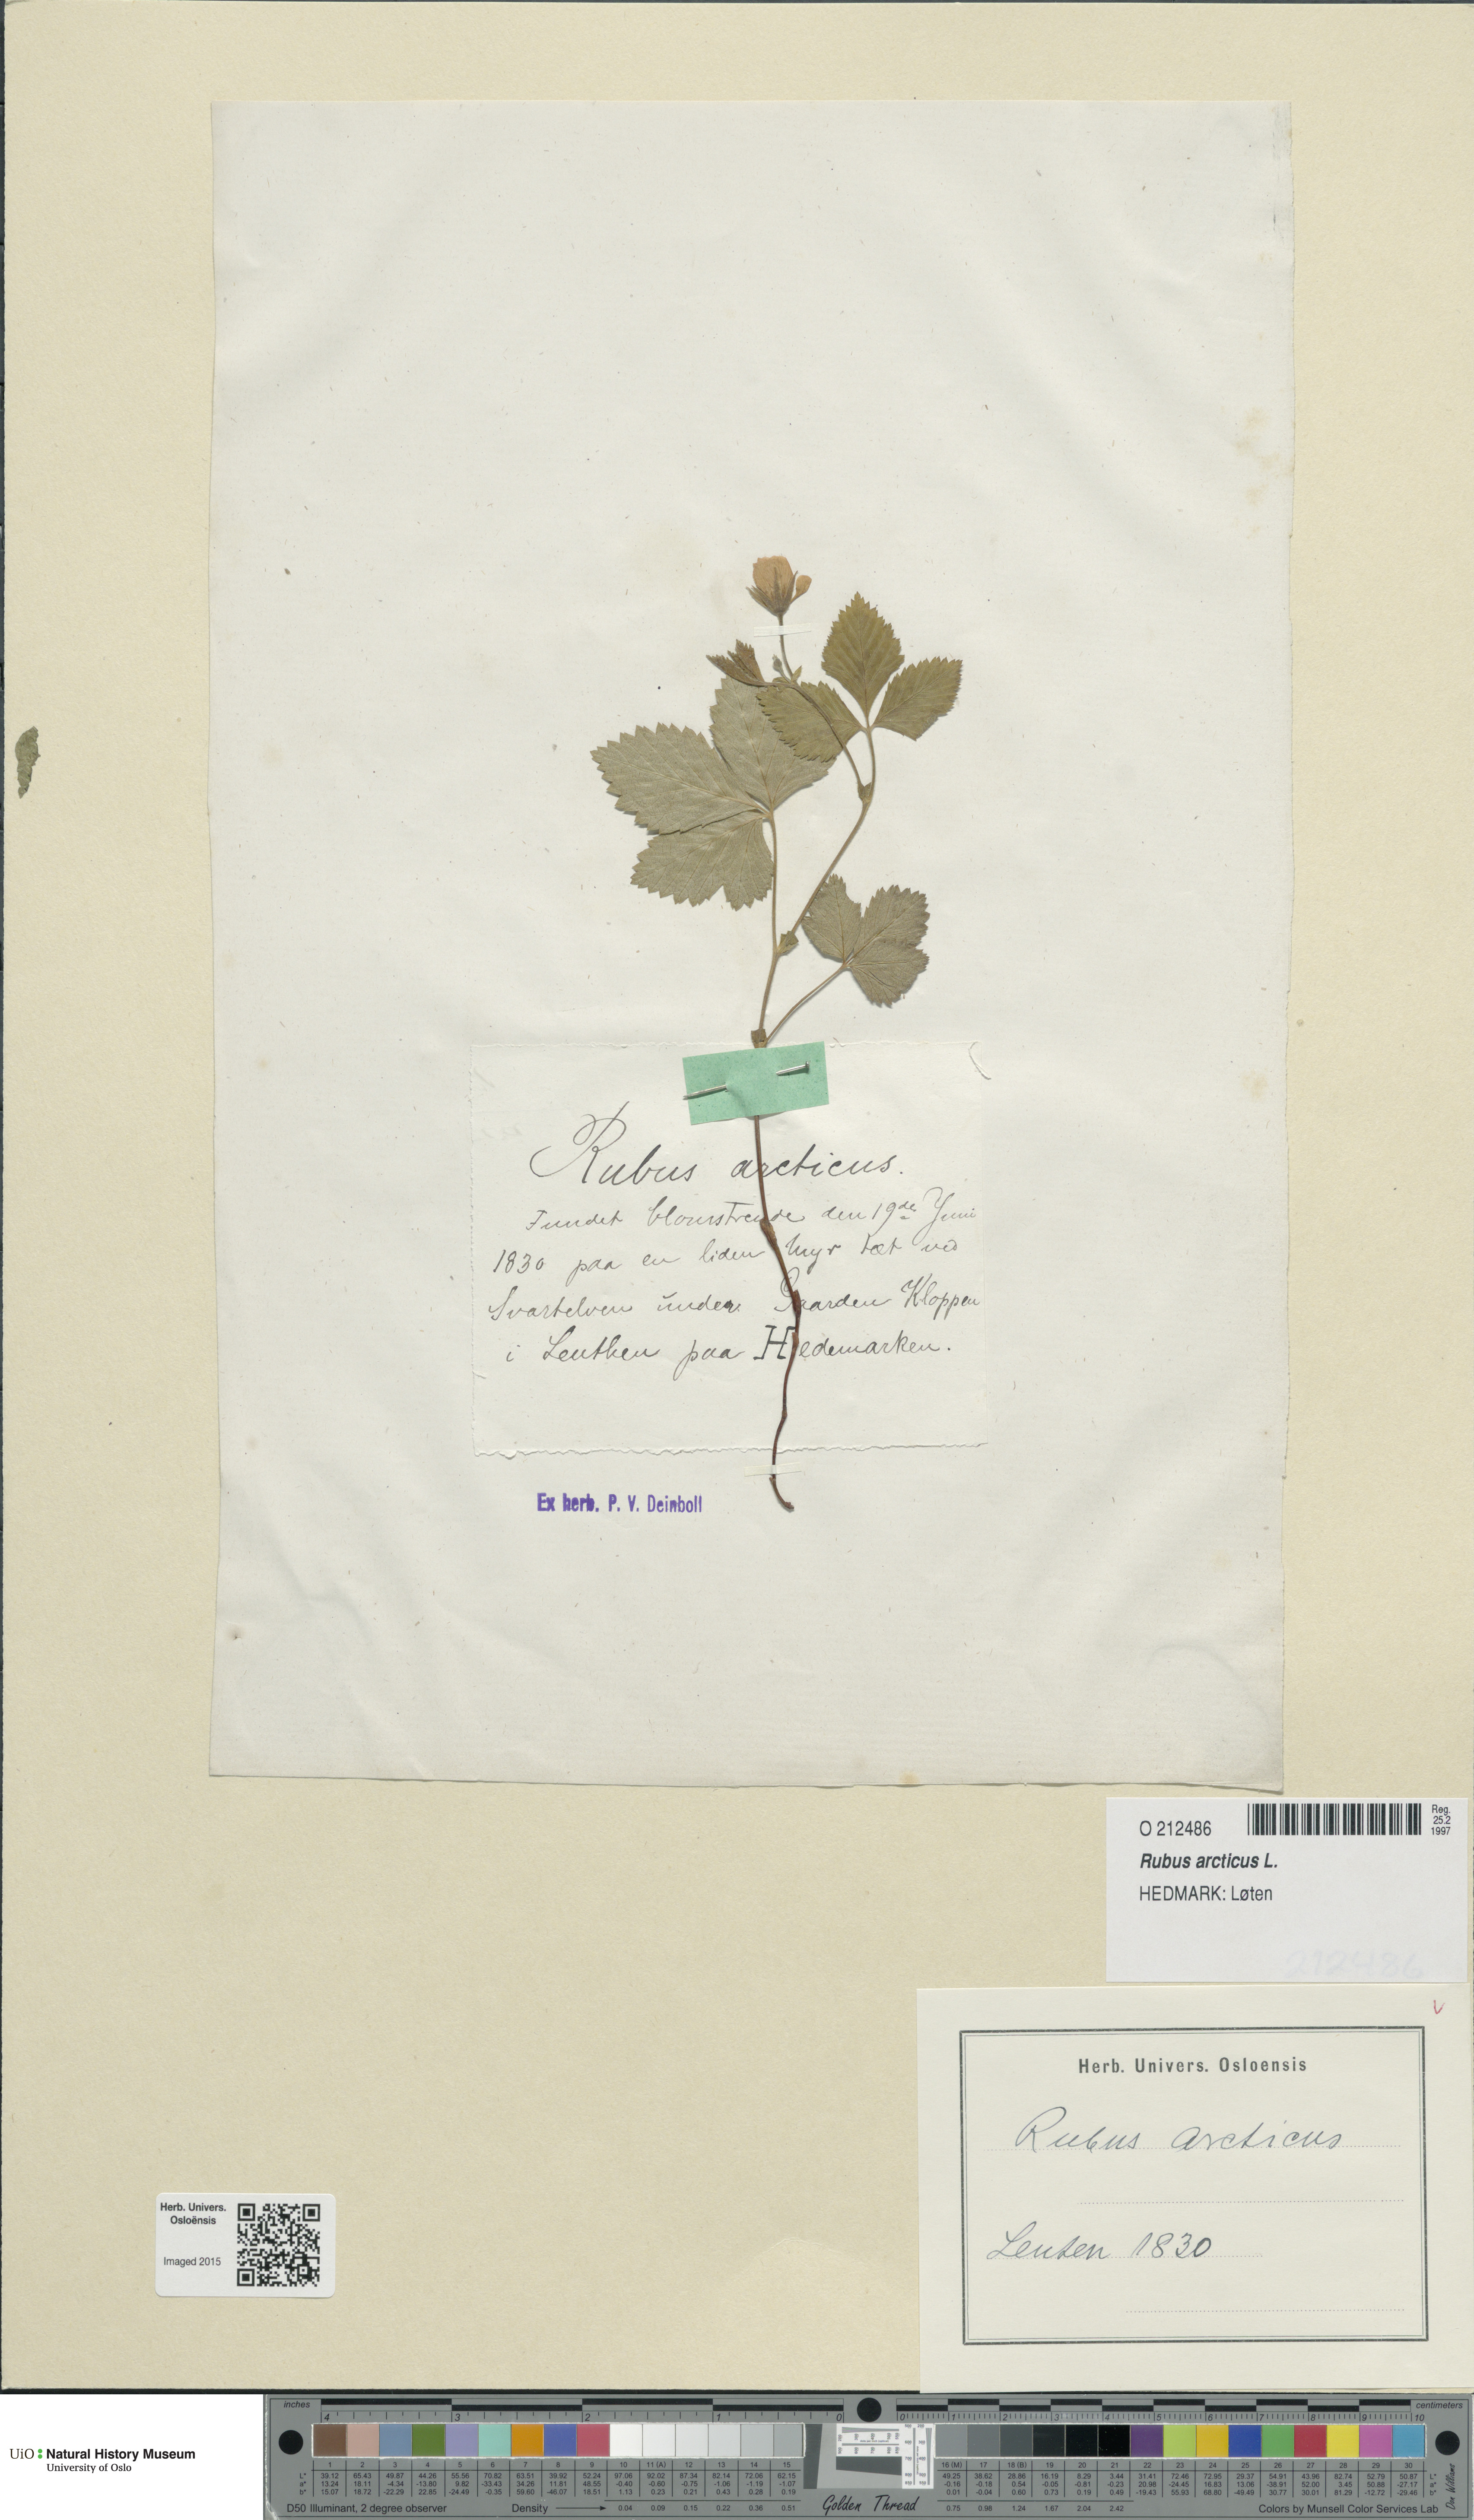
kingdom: Plantae
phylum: Tracheophyta
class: Magnoliopsida
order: Rosales
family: Rosaceae
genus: Rubus
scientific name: Rubus arcticus
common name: Arctic bramble
